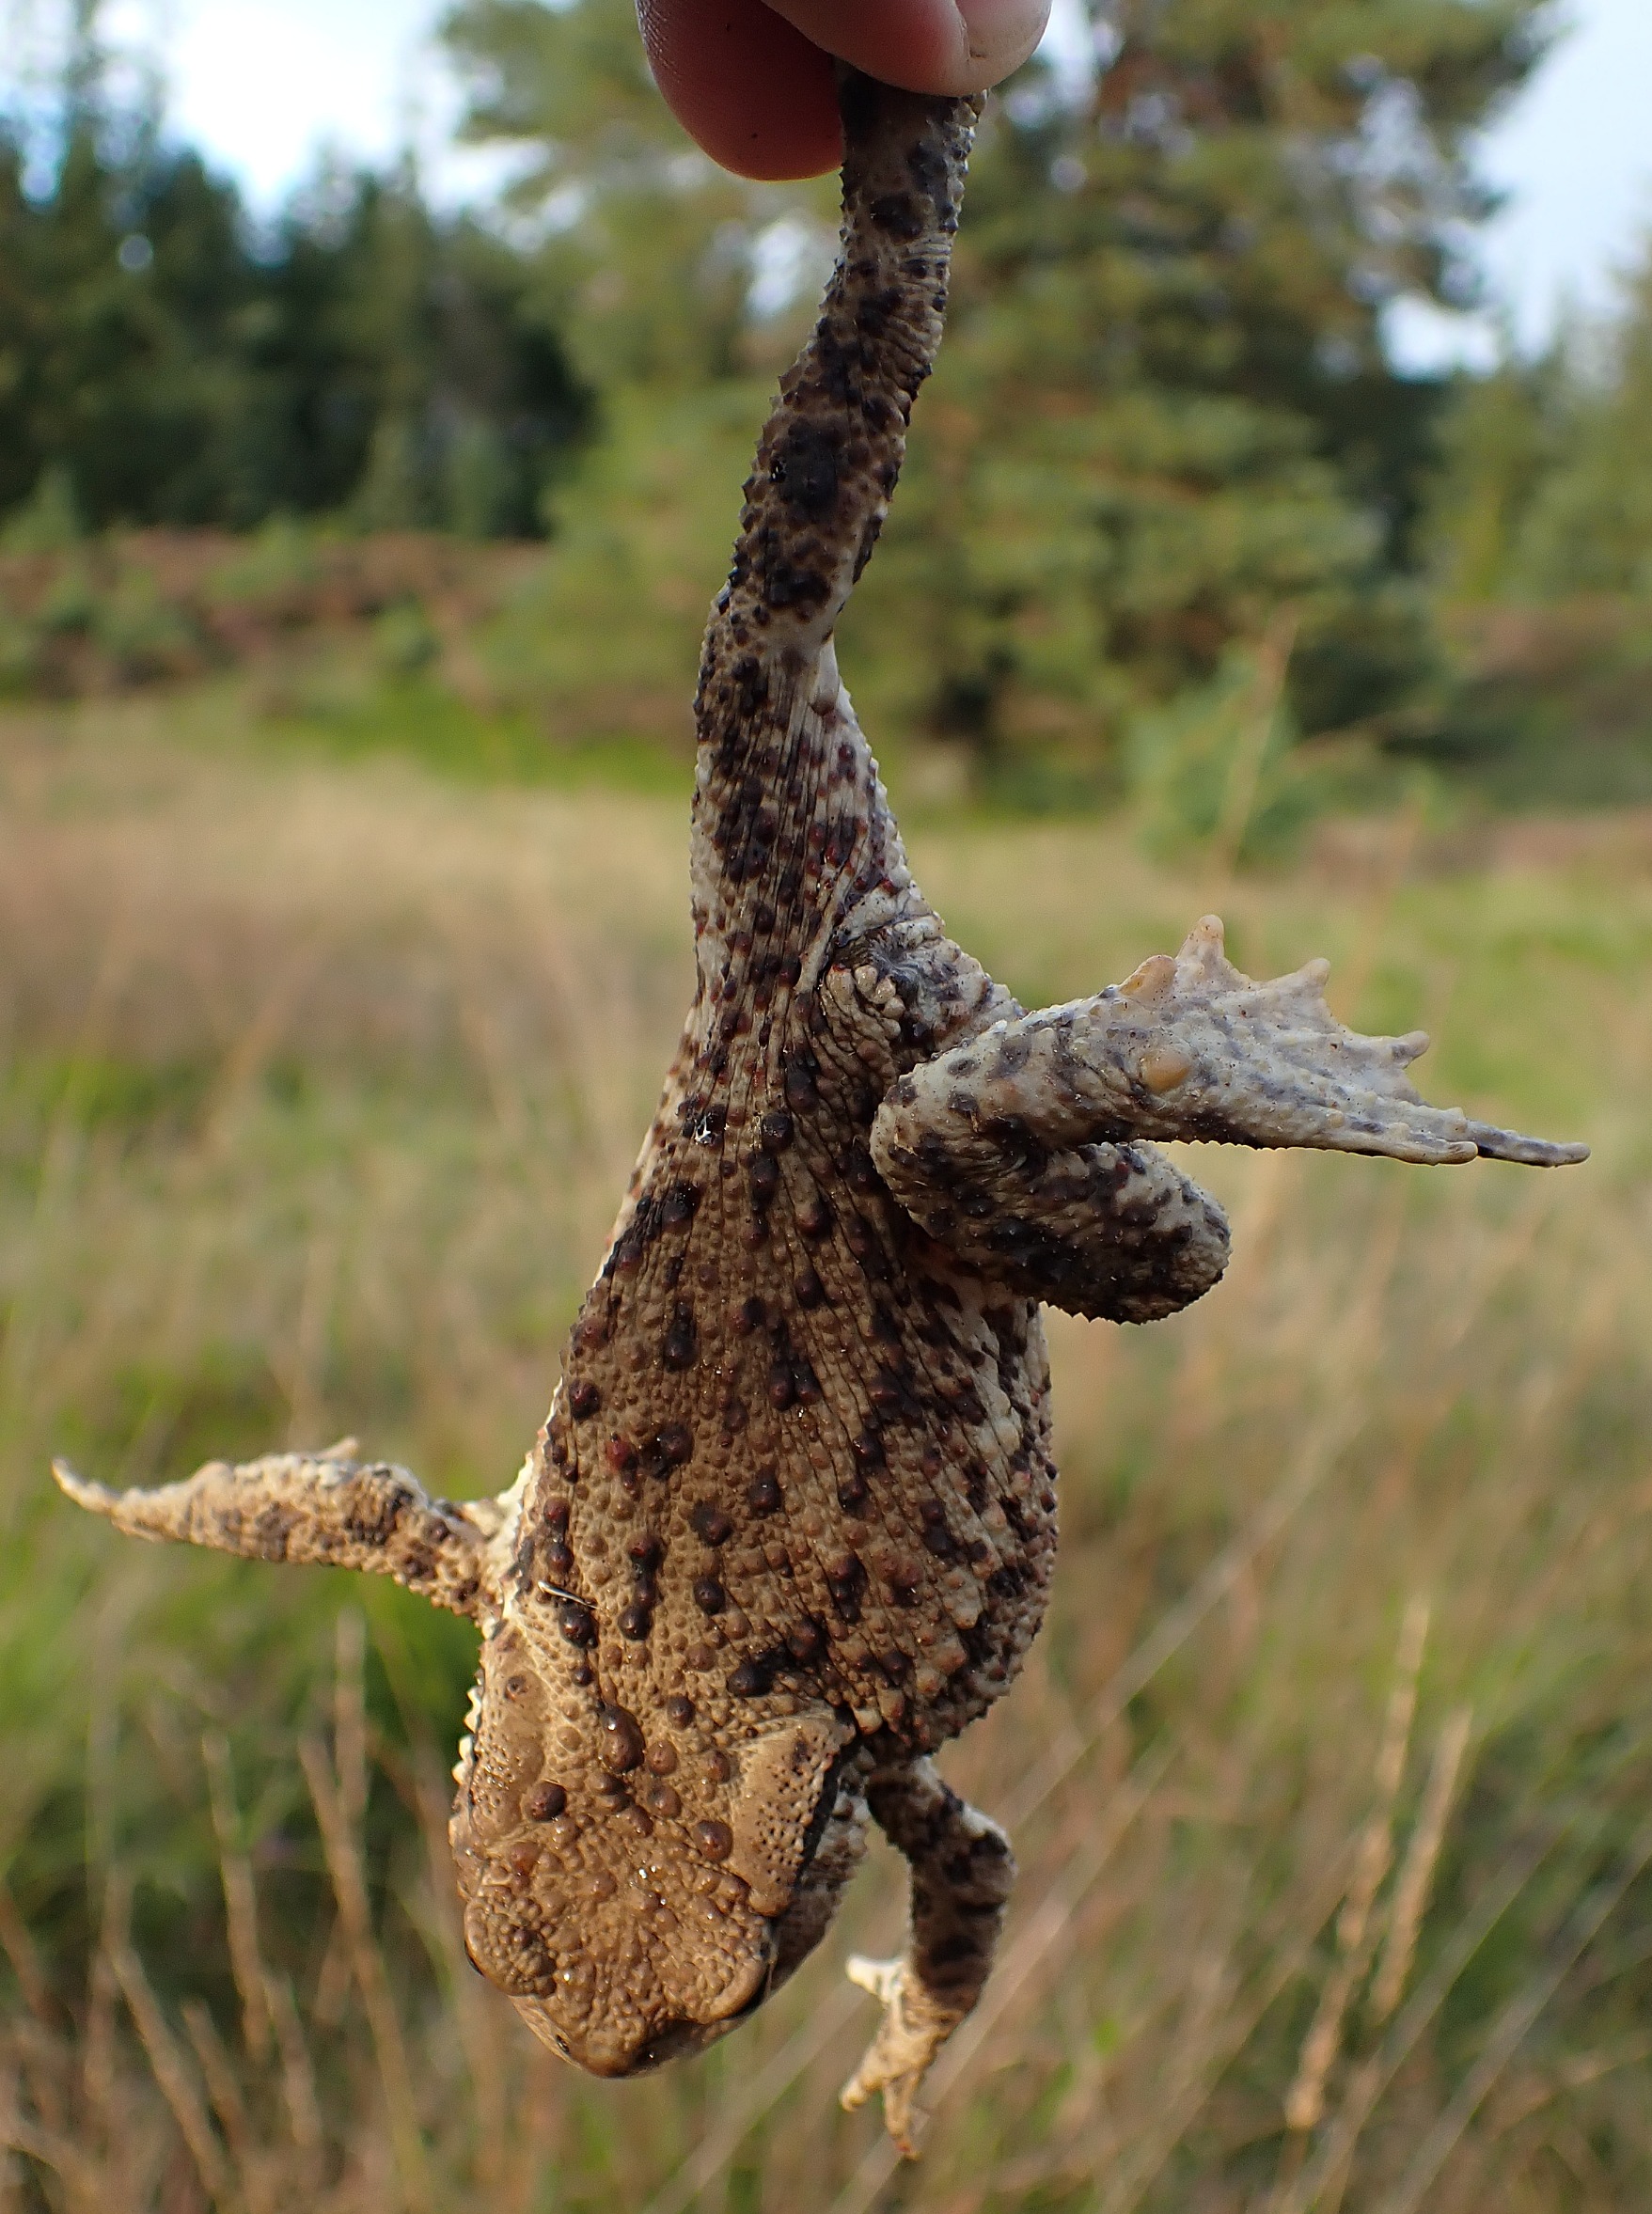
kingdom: Animalia
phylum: Chordata
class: Amphibia
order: Anura
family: Bufonidae
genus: Bufo
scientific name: Bufo bufo
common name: Skrubtudse
